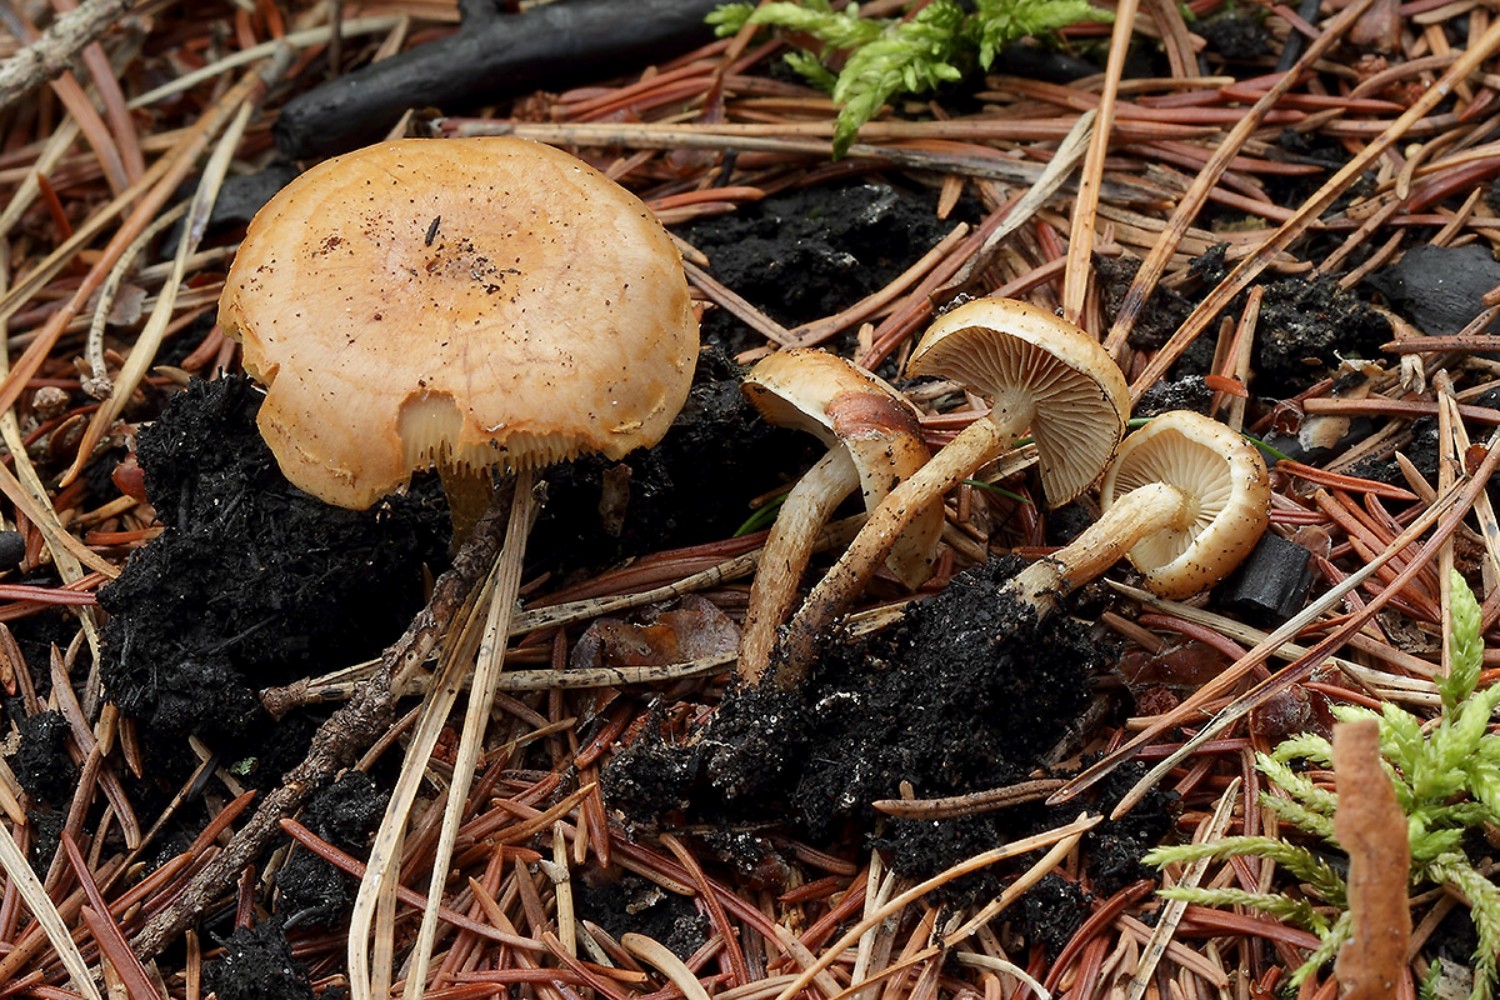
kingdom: Fungi
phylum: Basidiomycota
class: Agaricomycetes
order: Agaricales
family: Strophariaceae
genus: Pholiota
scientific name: Pholiota carbonaria
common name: kul-skælhat
